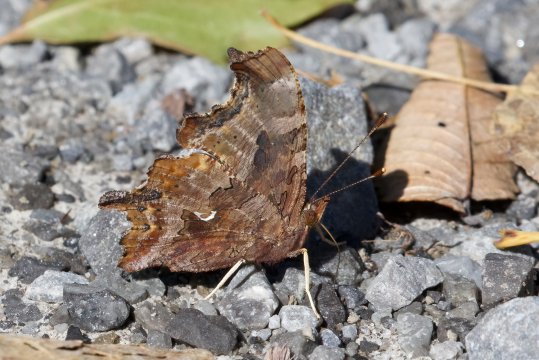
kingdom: Animalia
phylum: Arthropoda
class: Insecta
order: Lepidoptera
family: Nymphalidae
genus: Polygonia
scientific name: Polygonia comma
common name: Eastern Comma
